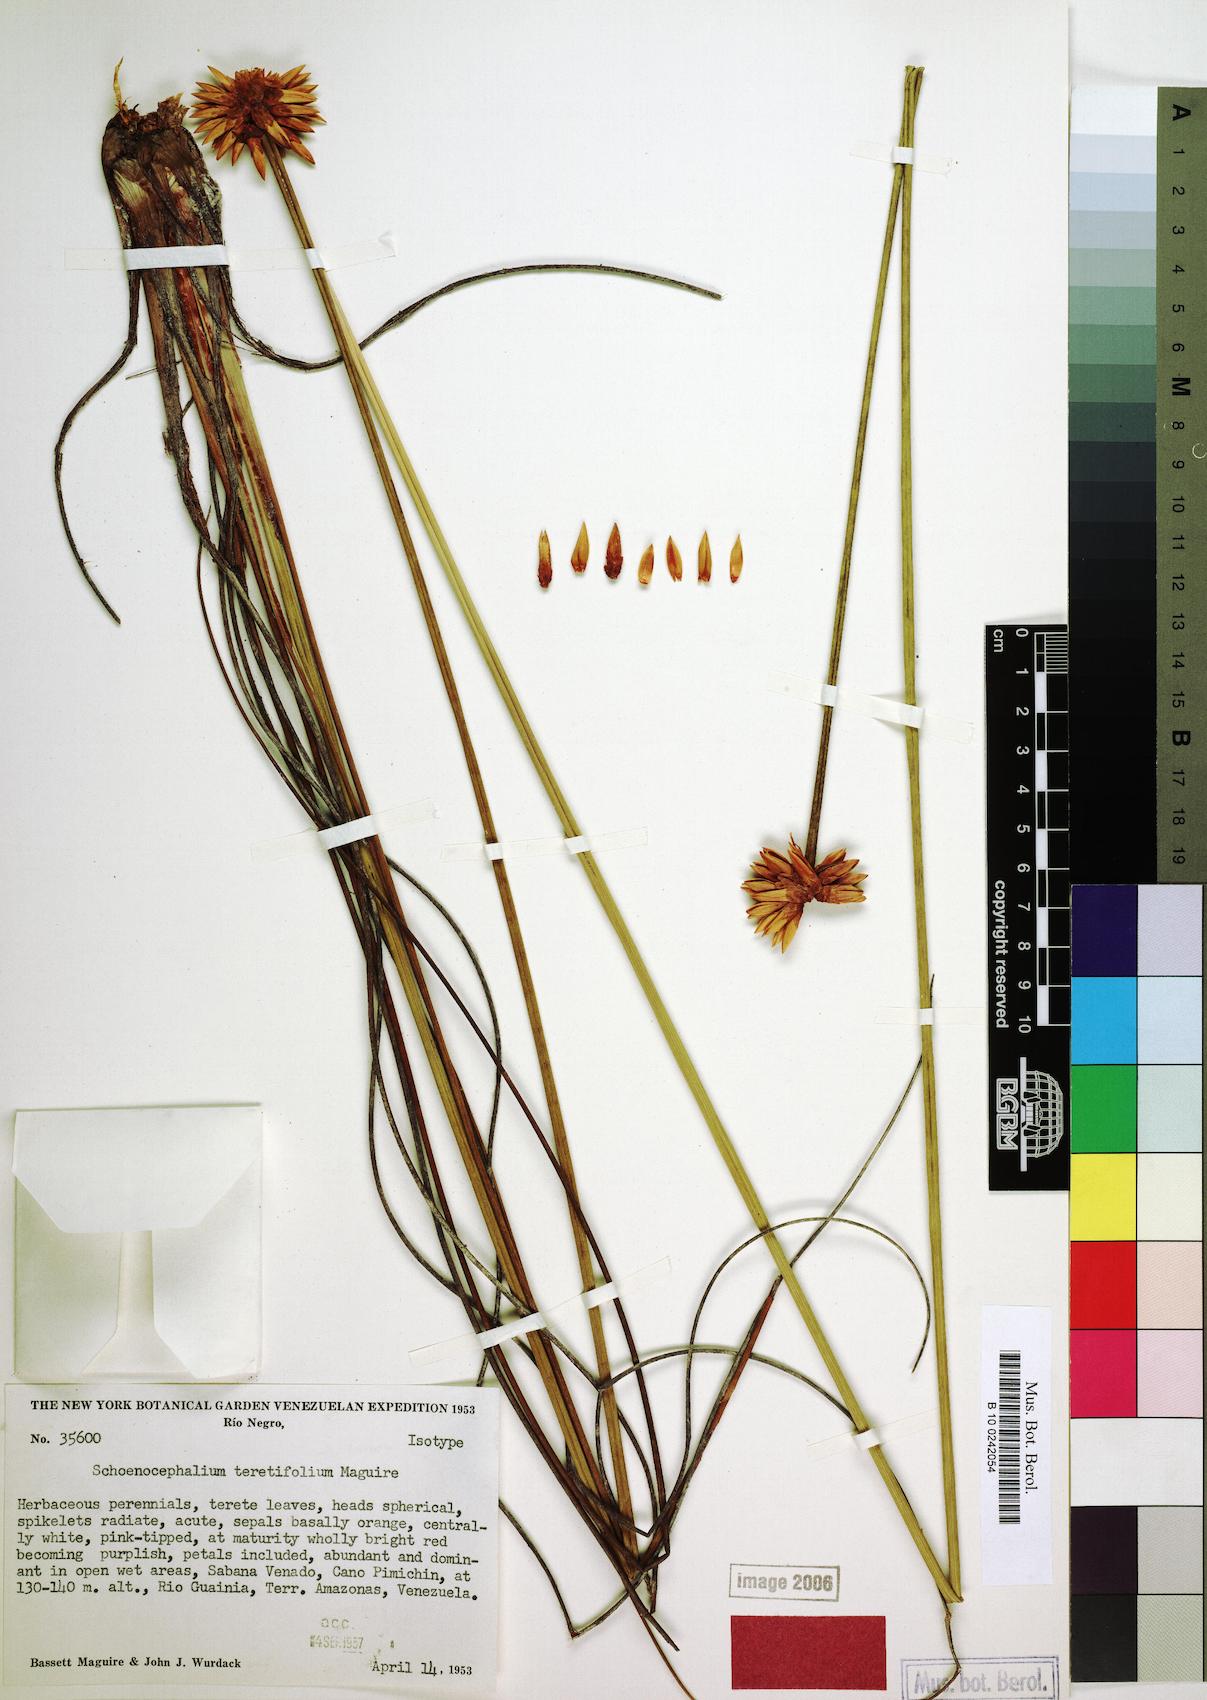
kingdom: Plantae
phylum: Tracheophyta
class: Liliopsida
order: Poales
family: Rapateaceae
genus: Schoenocephalium
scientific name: Schoenocephalium teretifolium
